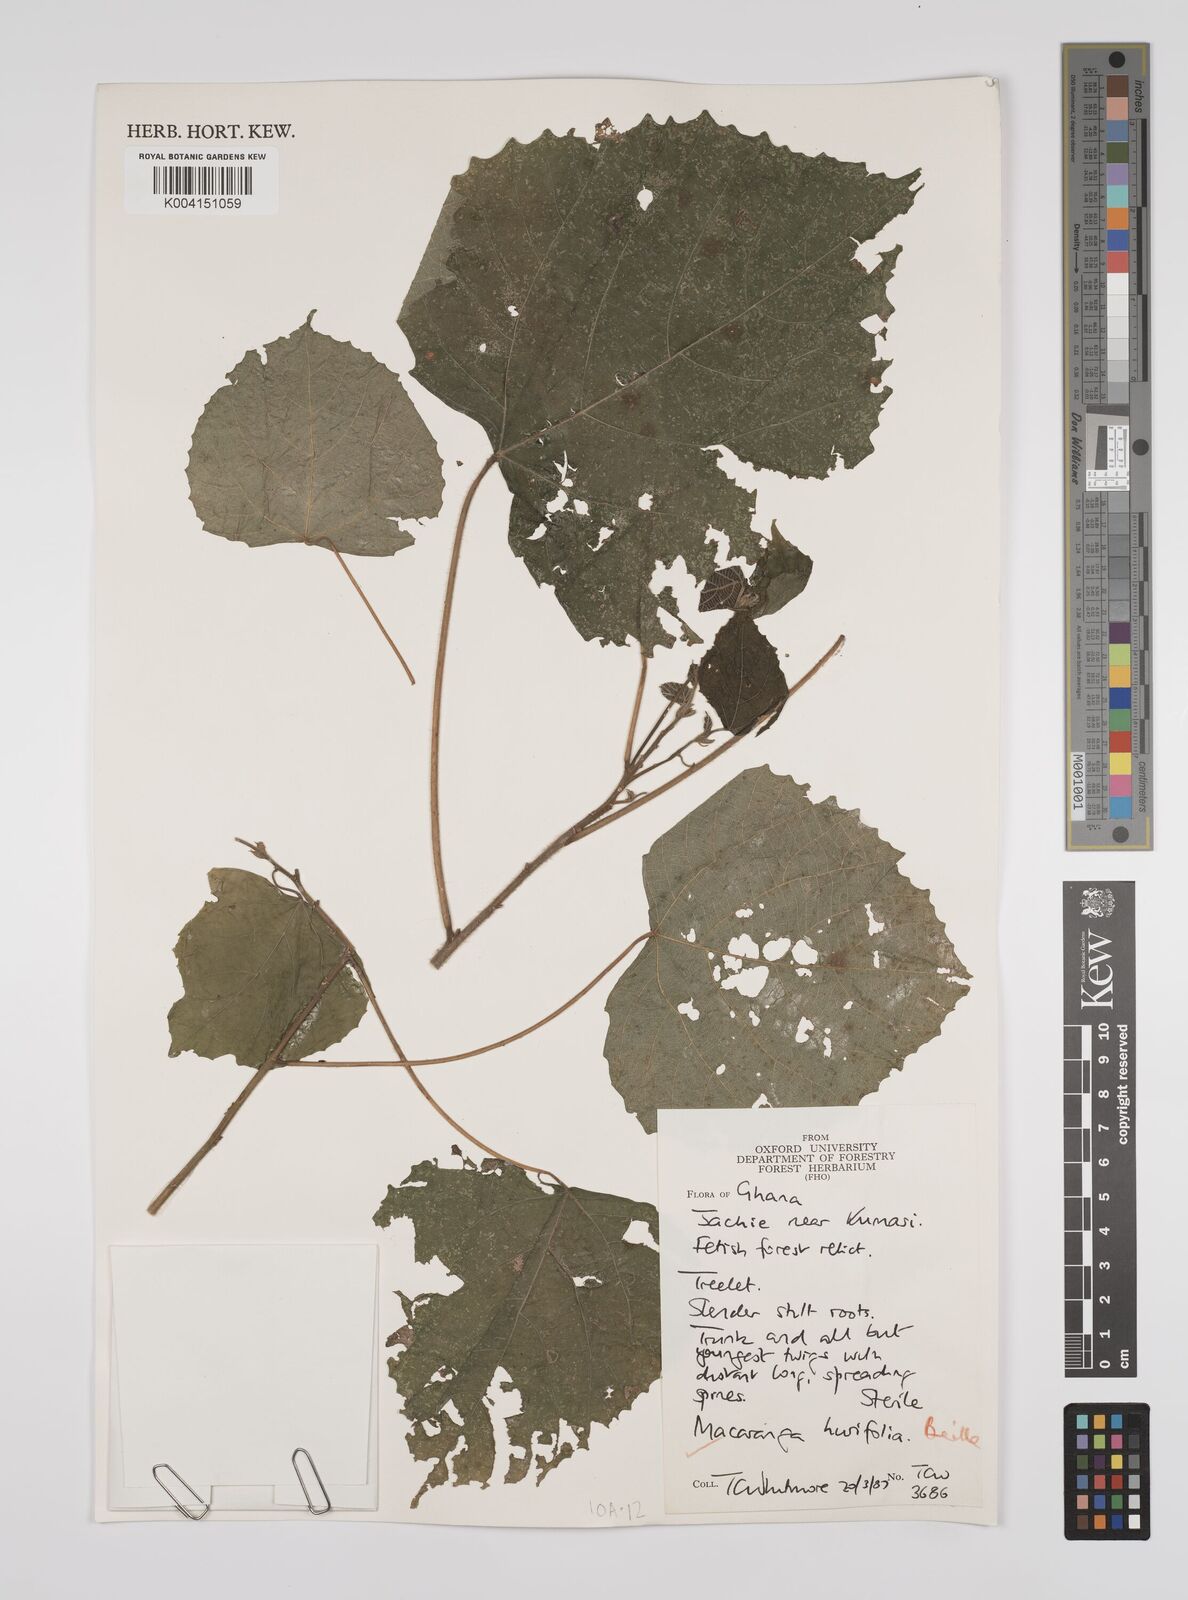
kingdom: Plantae
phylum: Tracheophyta
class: Magnoliopsida
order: Malpighiales
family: Euphorbiaceae
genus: Macaranga
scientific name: Macaranga hurifolia
